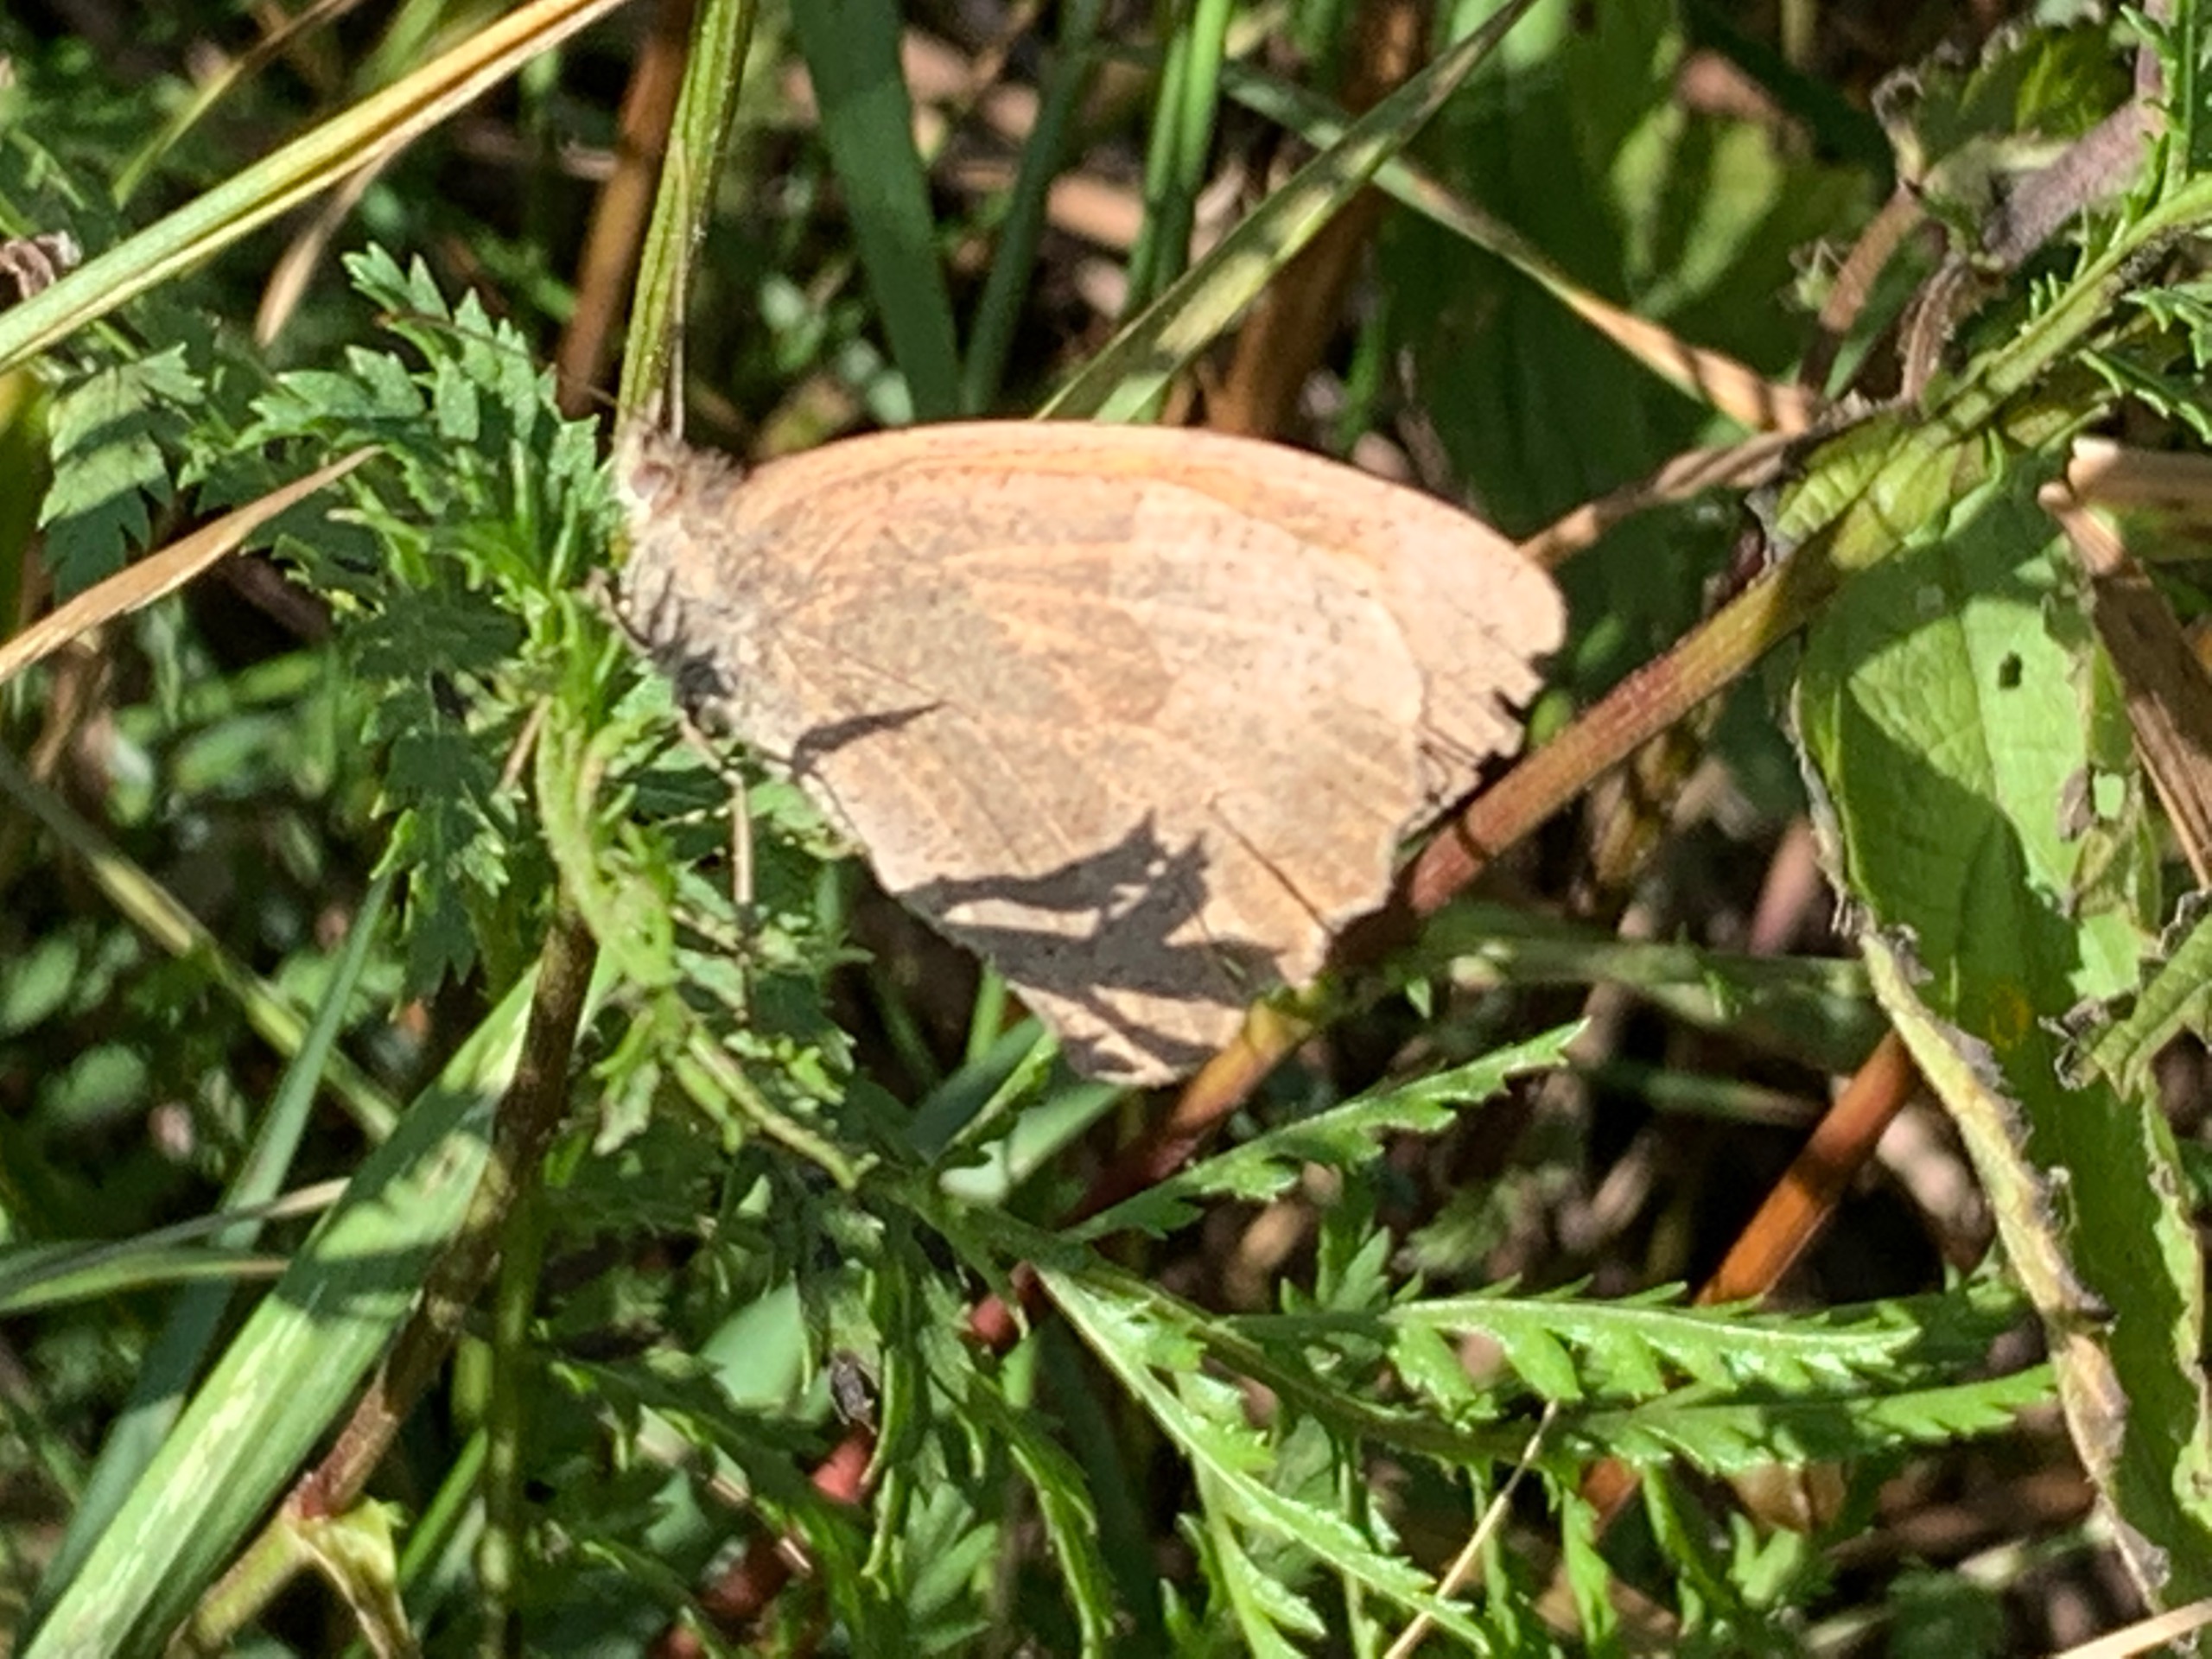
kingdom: Animalia
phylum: Arthropoda
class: Insecta
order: Lepidoptera
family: Nymphalidae
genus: Maniola
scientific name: Maniola jurtina
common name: Græsrandøje
